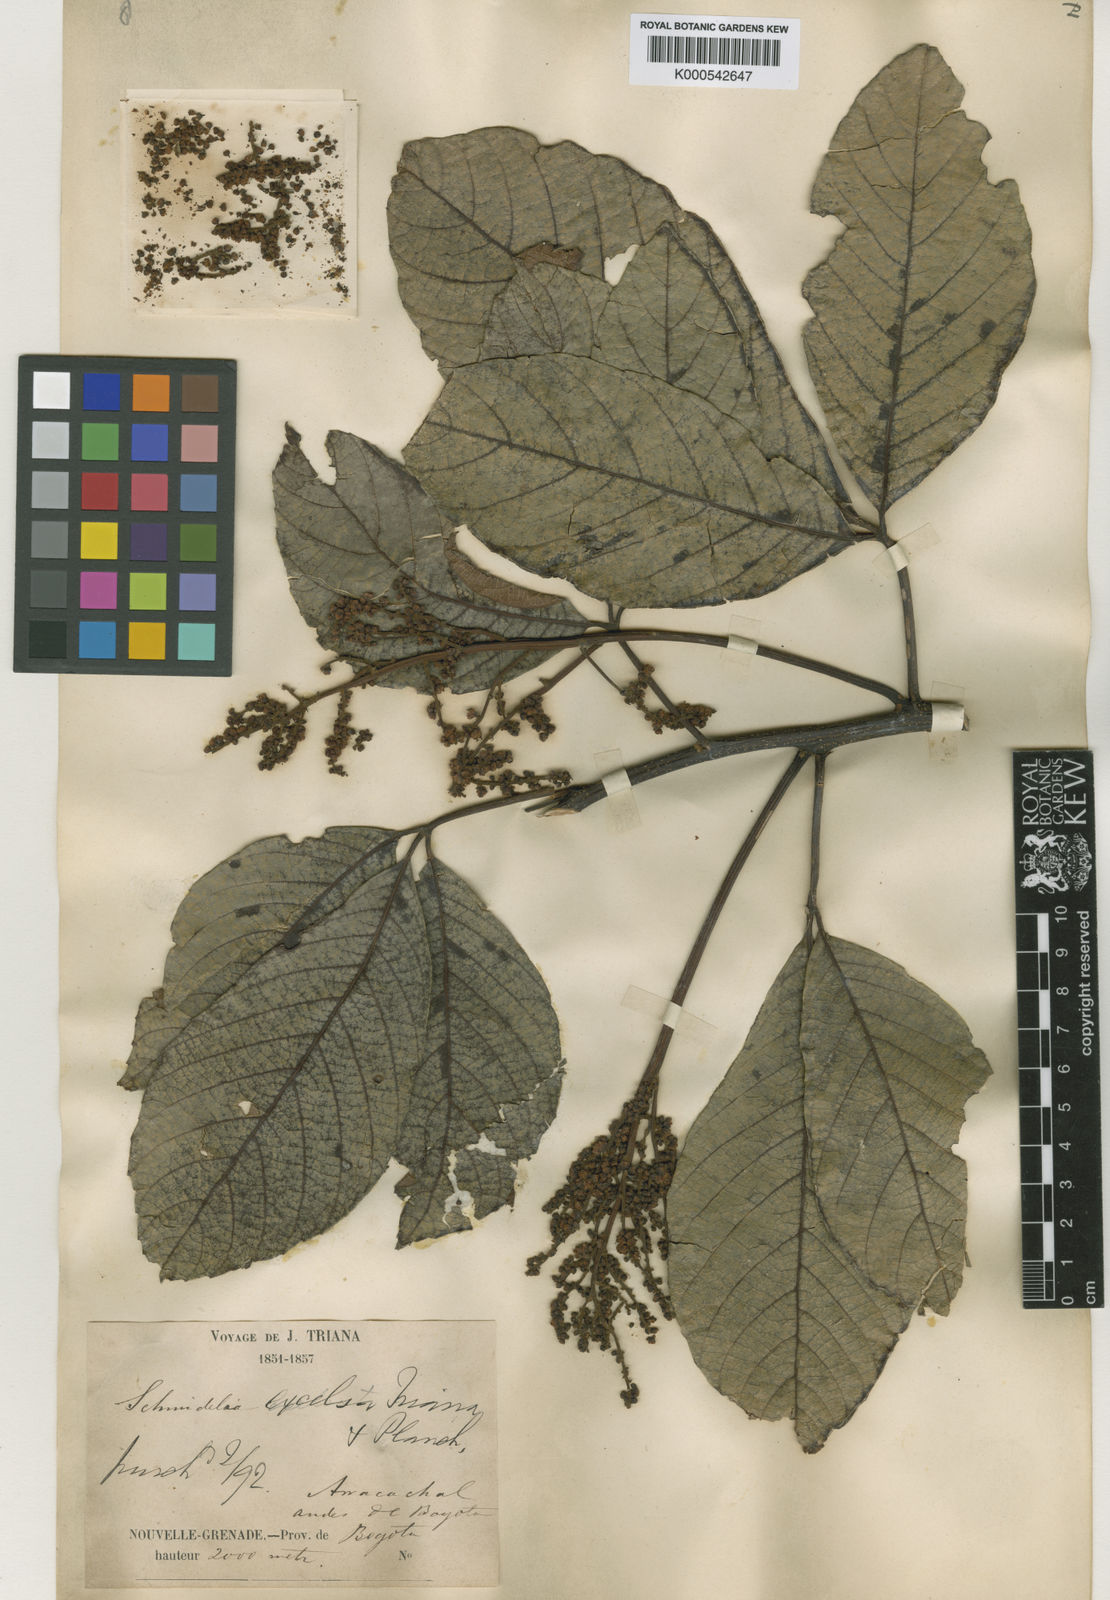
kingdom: Plantae
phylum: Tracheophyta
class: Magnoliopsida
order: Sapindales
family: Sapindaceae
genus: Allophylus
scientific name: Allophylus excelsus
